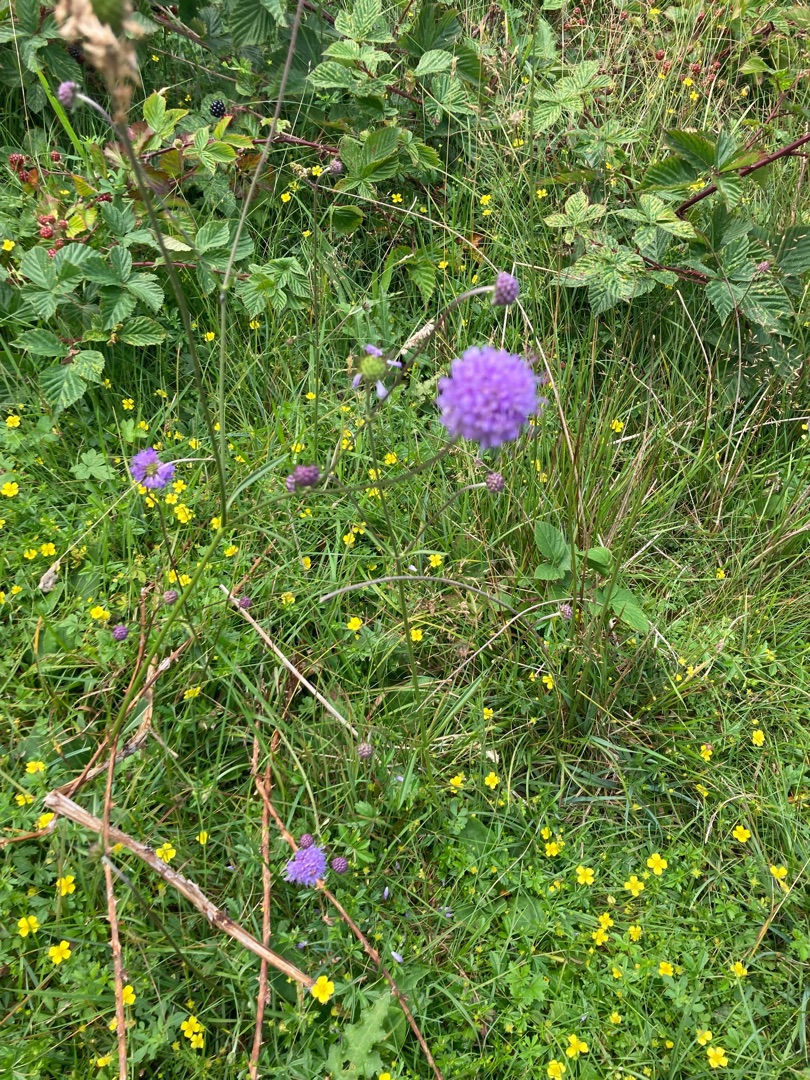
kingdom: Plantae
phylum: Tracheophyta
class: Magnoliopsida
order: Dipsacales
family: Caprifoliaceae
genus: Succisa
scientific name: Succisa pratensis
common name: Djævelsbid
